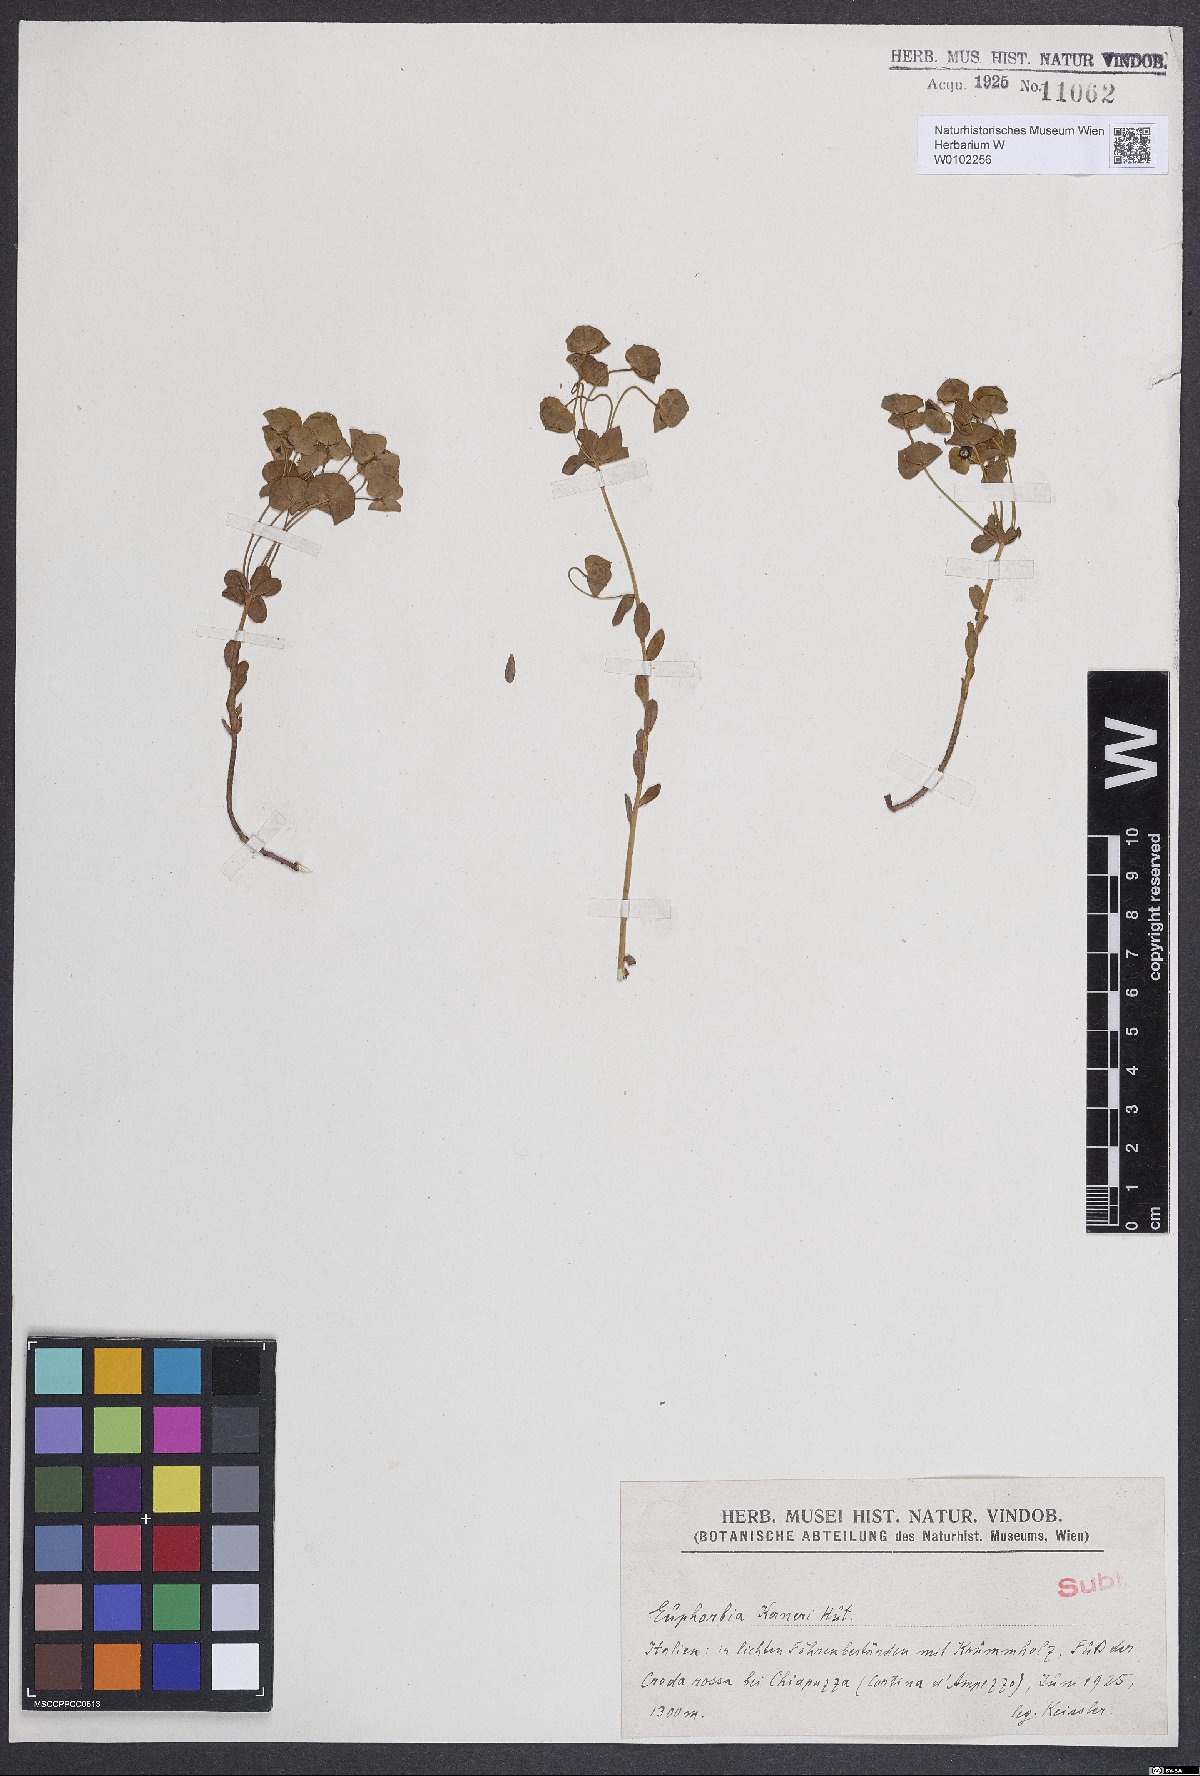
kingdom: Plantae
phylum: Tracheophyta
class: Magnoliopsida
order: Malpighiales
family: Euphorbiaceae
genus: Euphorbia
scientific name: Euphorbia kerneri
